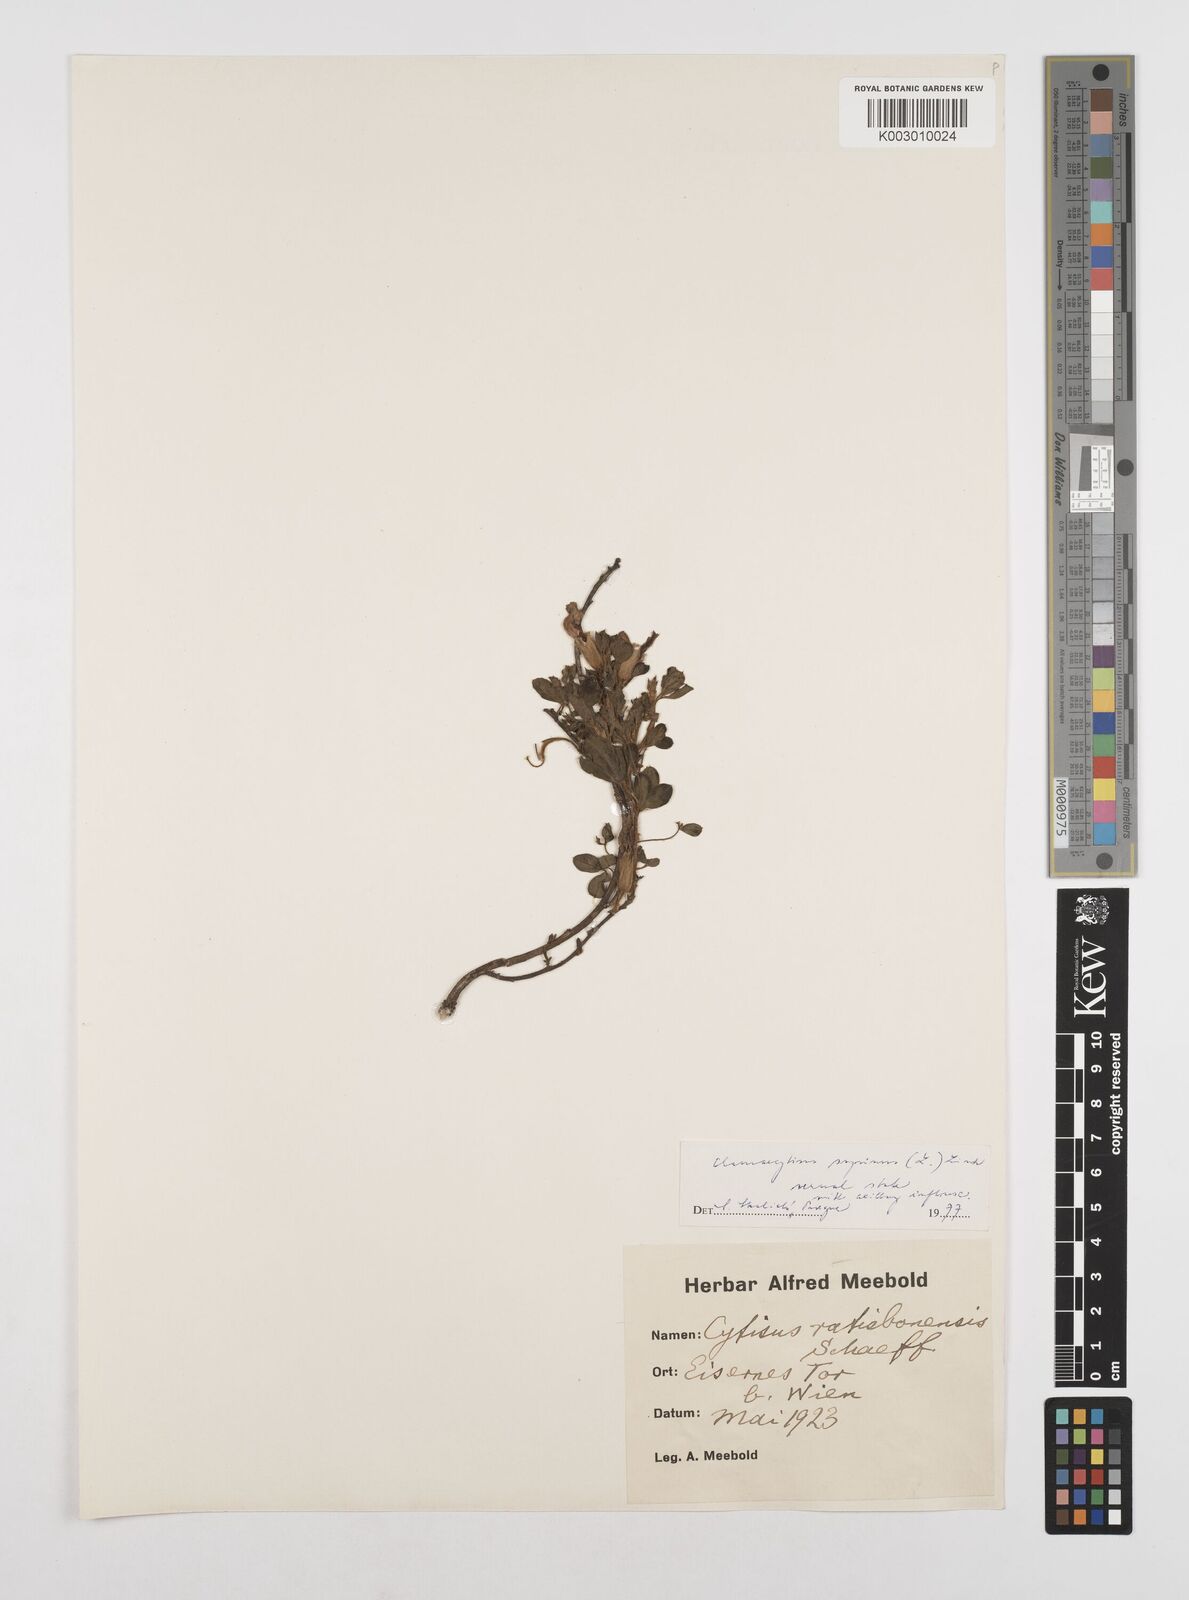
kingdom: Plantae
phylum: Tracheophyta
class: Magnoliopsida
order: Fabales
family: Fabaceae
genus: Chamaecytisus
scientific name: Chamaecytisus hirsutus
